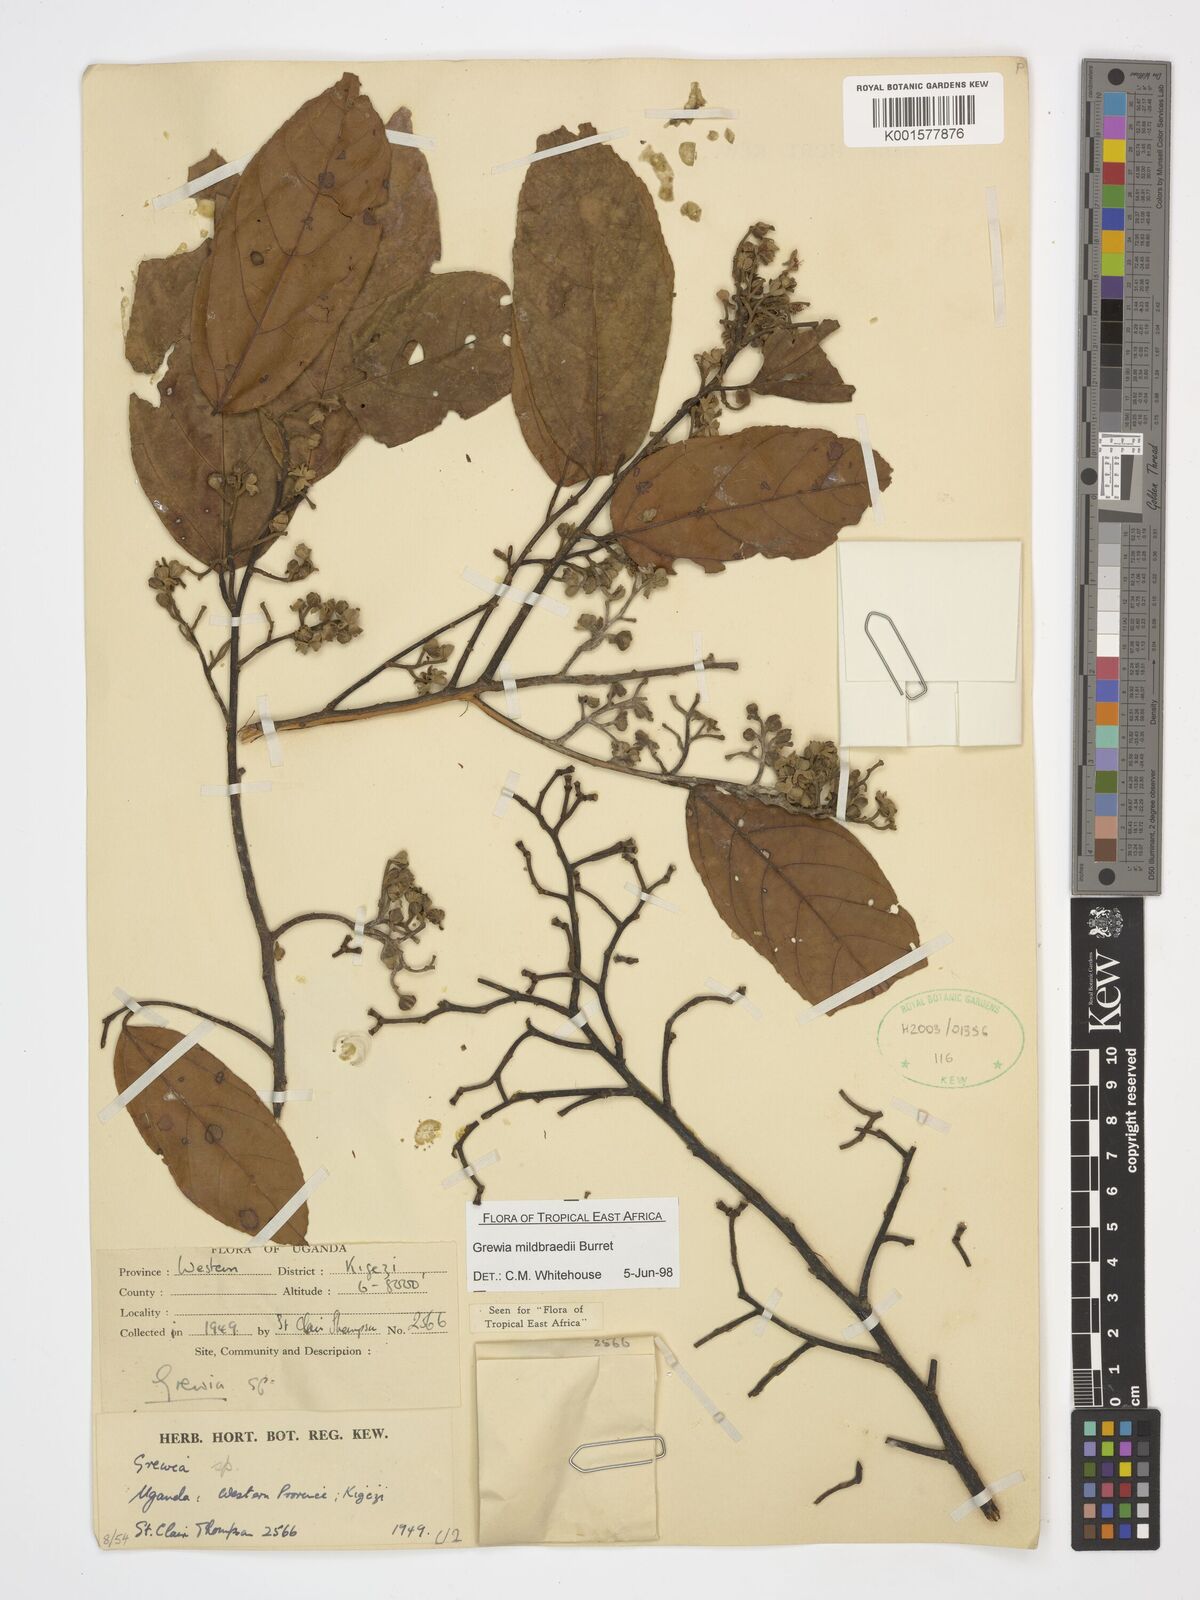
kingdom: Plantae
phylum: Tracheophyta
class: Magnoliopsida
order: Malvales
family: Malvaceae
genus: Microcos
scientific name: Microcos mildbraedii
